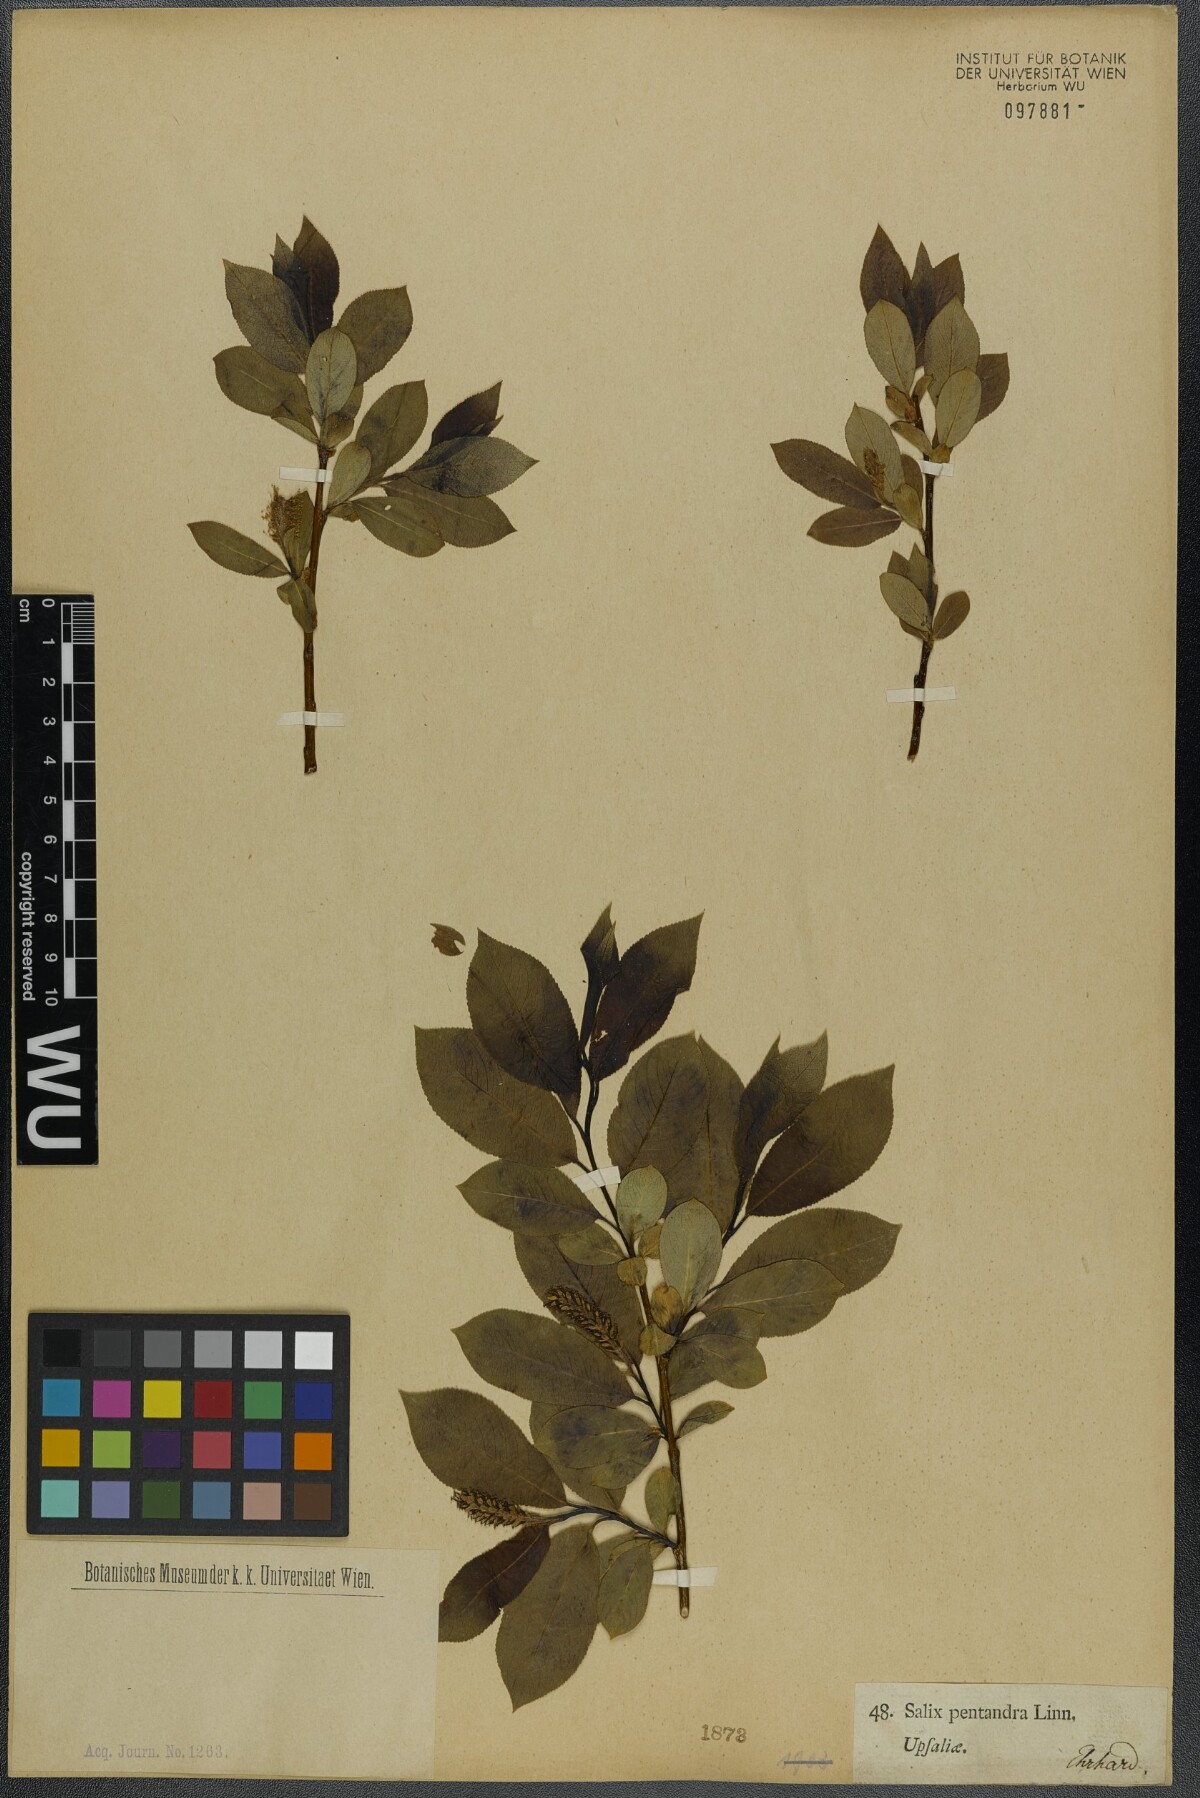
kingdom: Plantae
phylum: Tracheophyta
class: Magnoliopsida
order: Malpighiales
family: Salicaceae
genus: Salix
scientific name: Salix pentandra
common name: Bay willow
